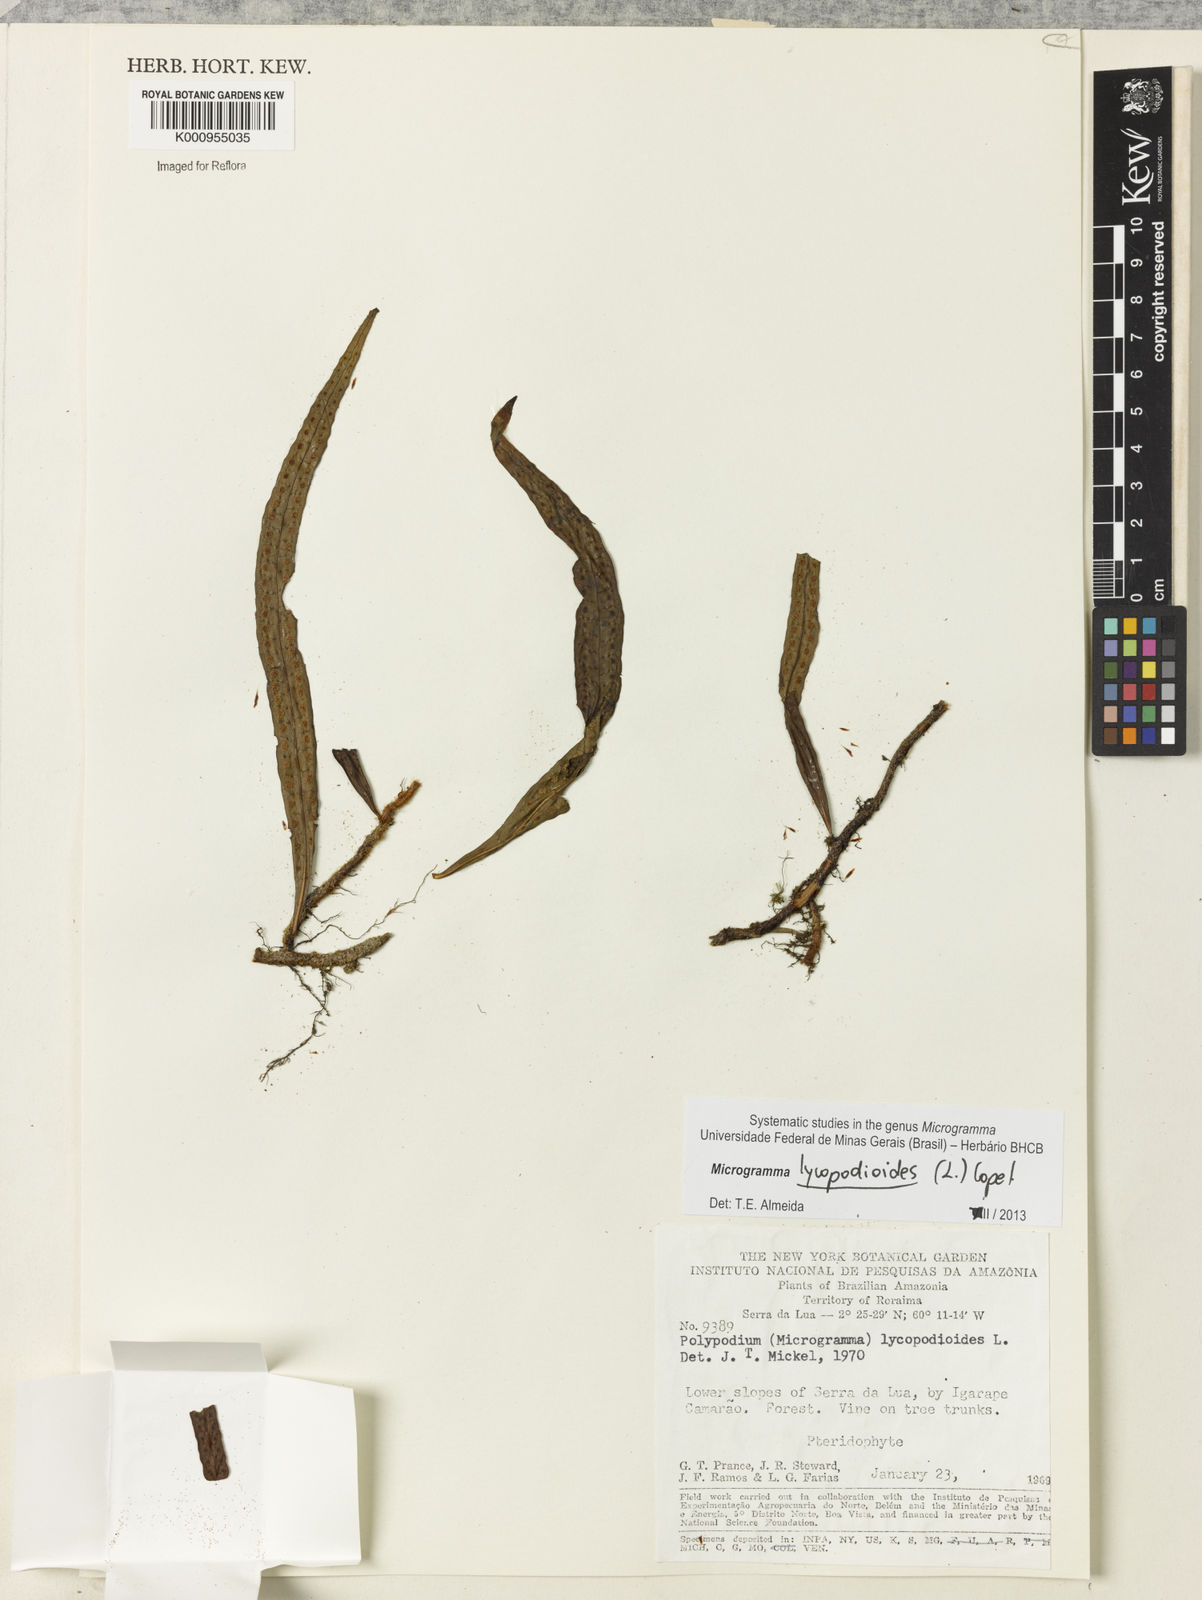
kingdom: Plantae
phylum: Tracheophyta
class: Polypodiopsida
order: Polypodiales
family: Polypodiaceae
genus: Microgramma
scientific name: Microgramma lycopodioides
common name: Bastard catclaw
